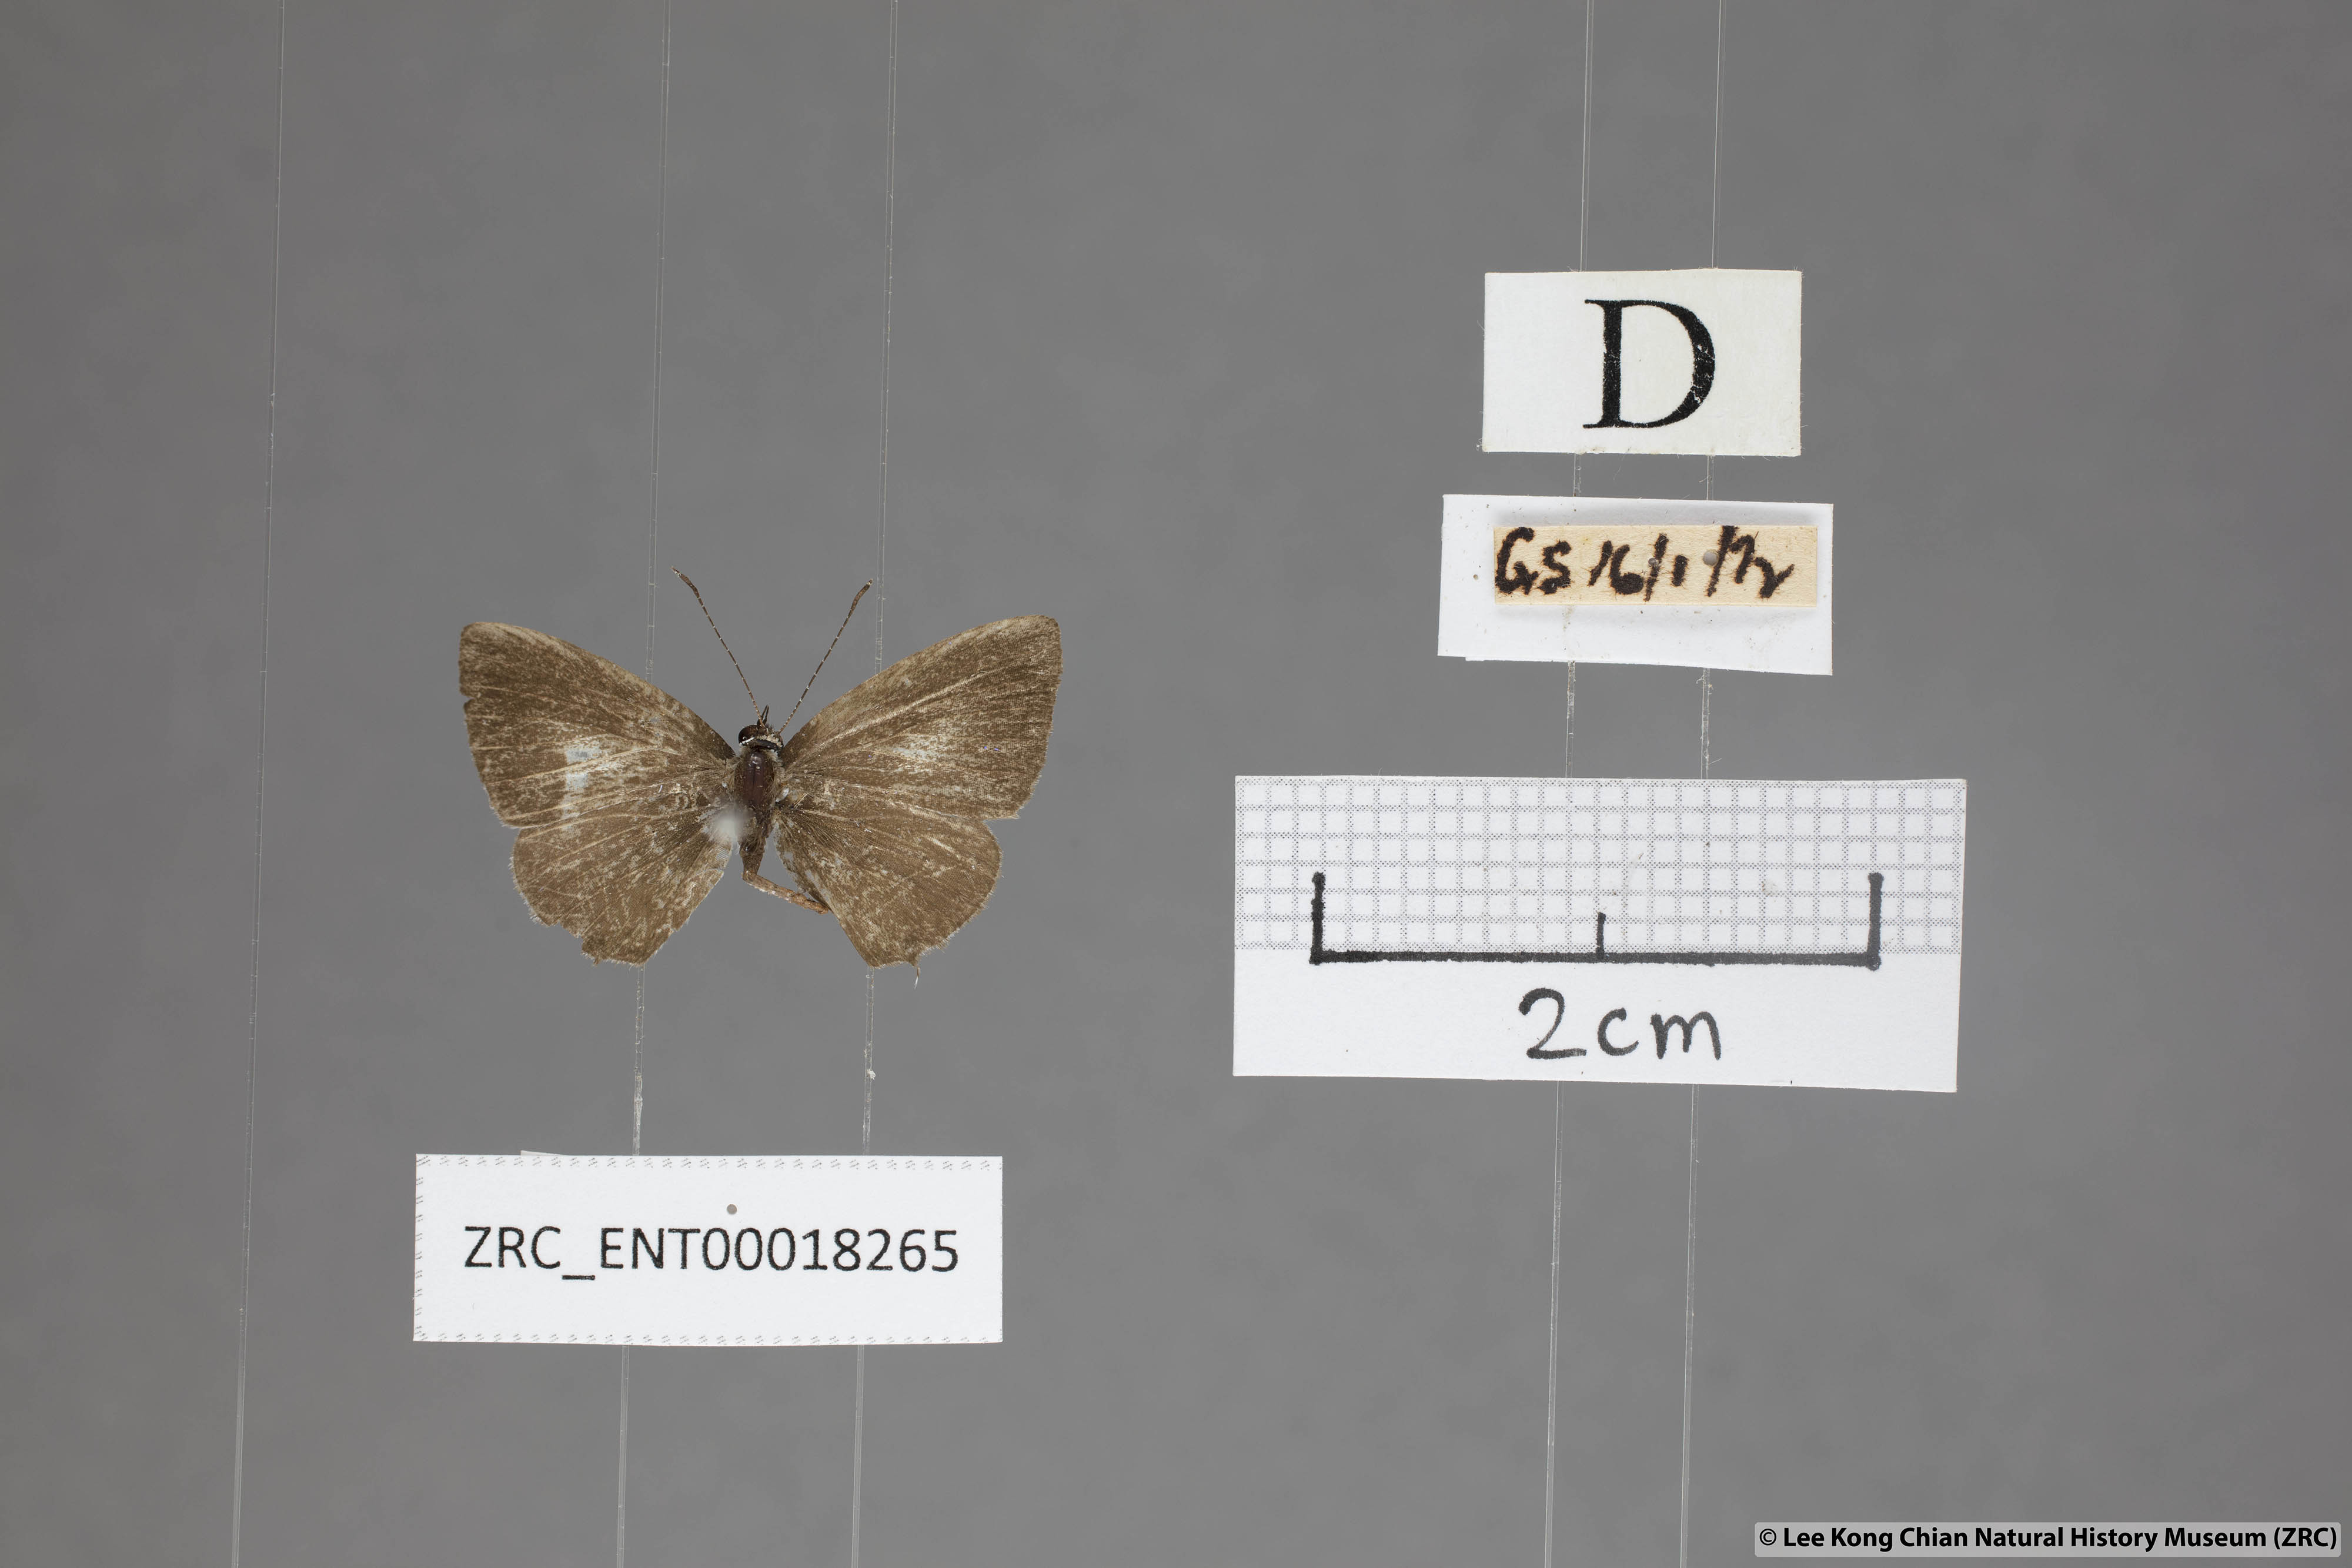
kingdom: Animalia
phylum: Arthropoda
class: Insecta
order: Lepidoptera
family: Lycaenidae
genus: Megisba
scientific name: Megisba malaya
